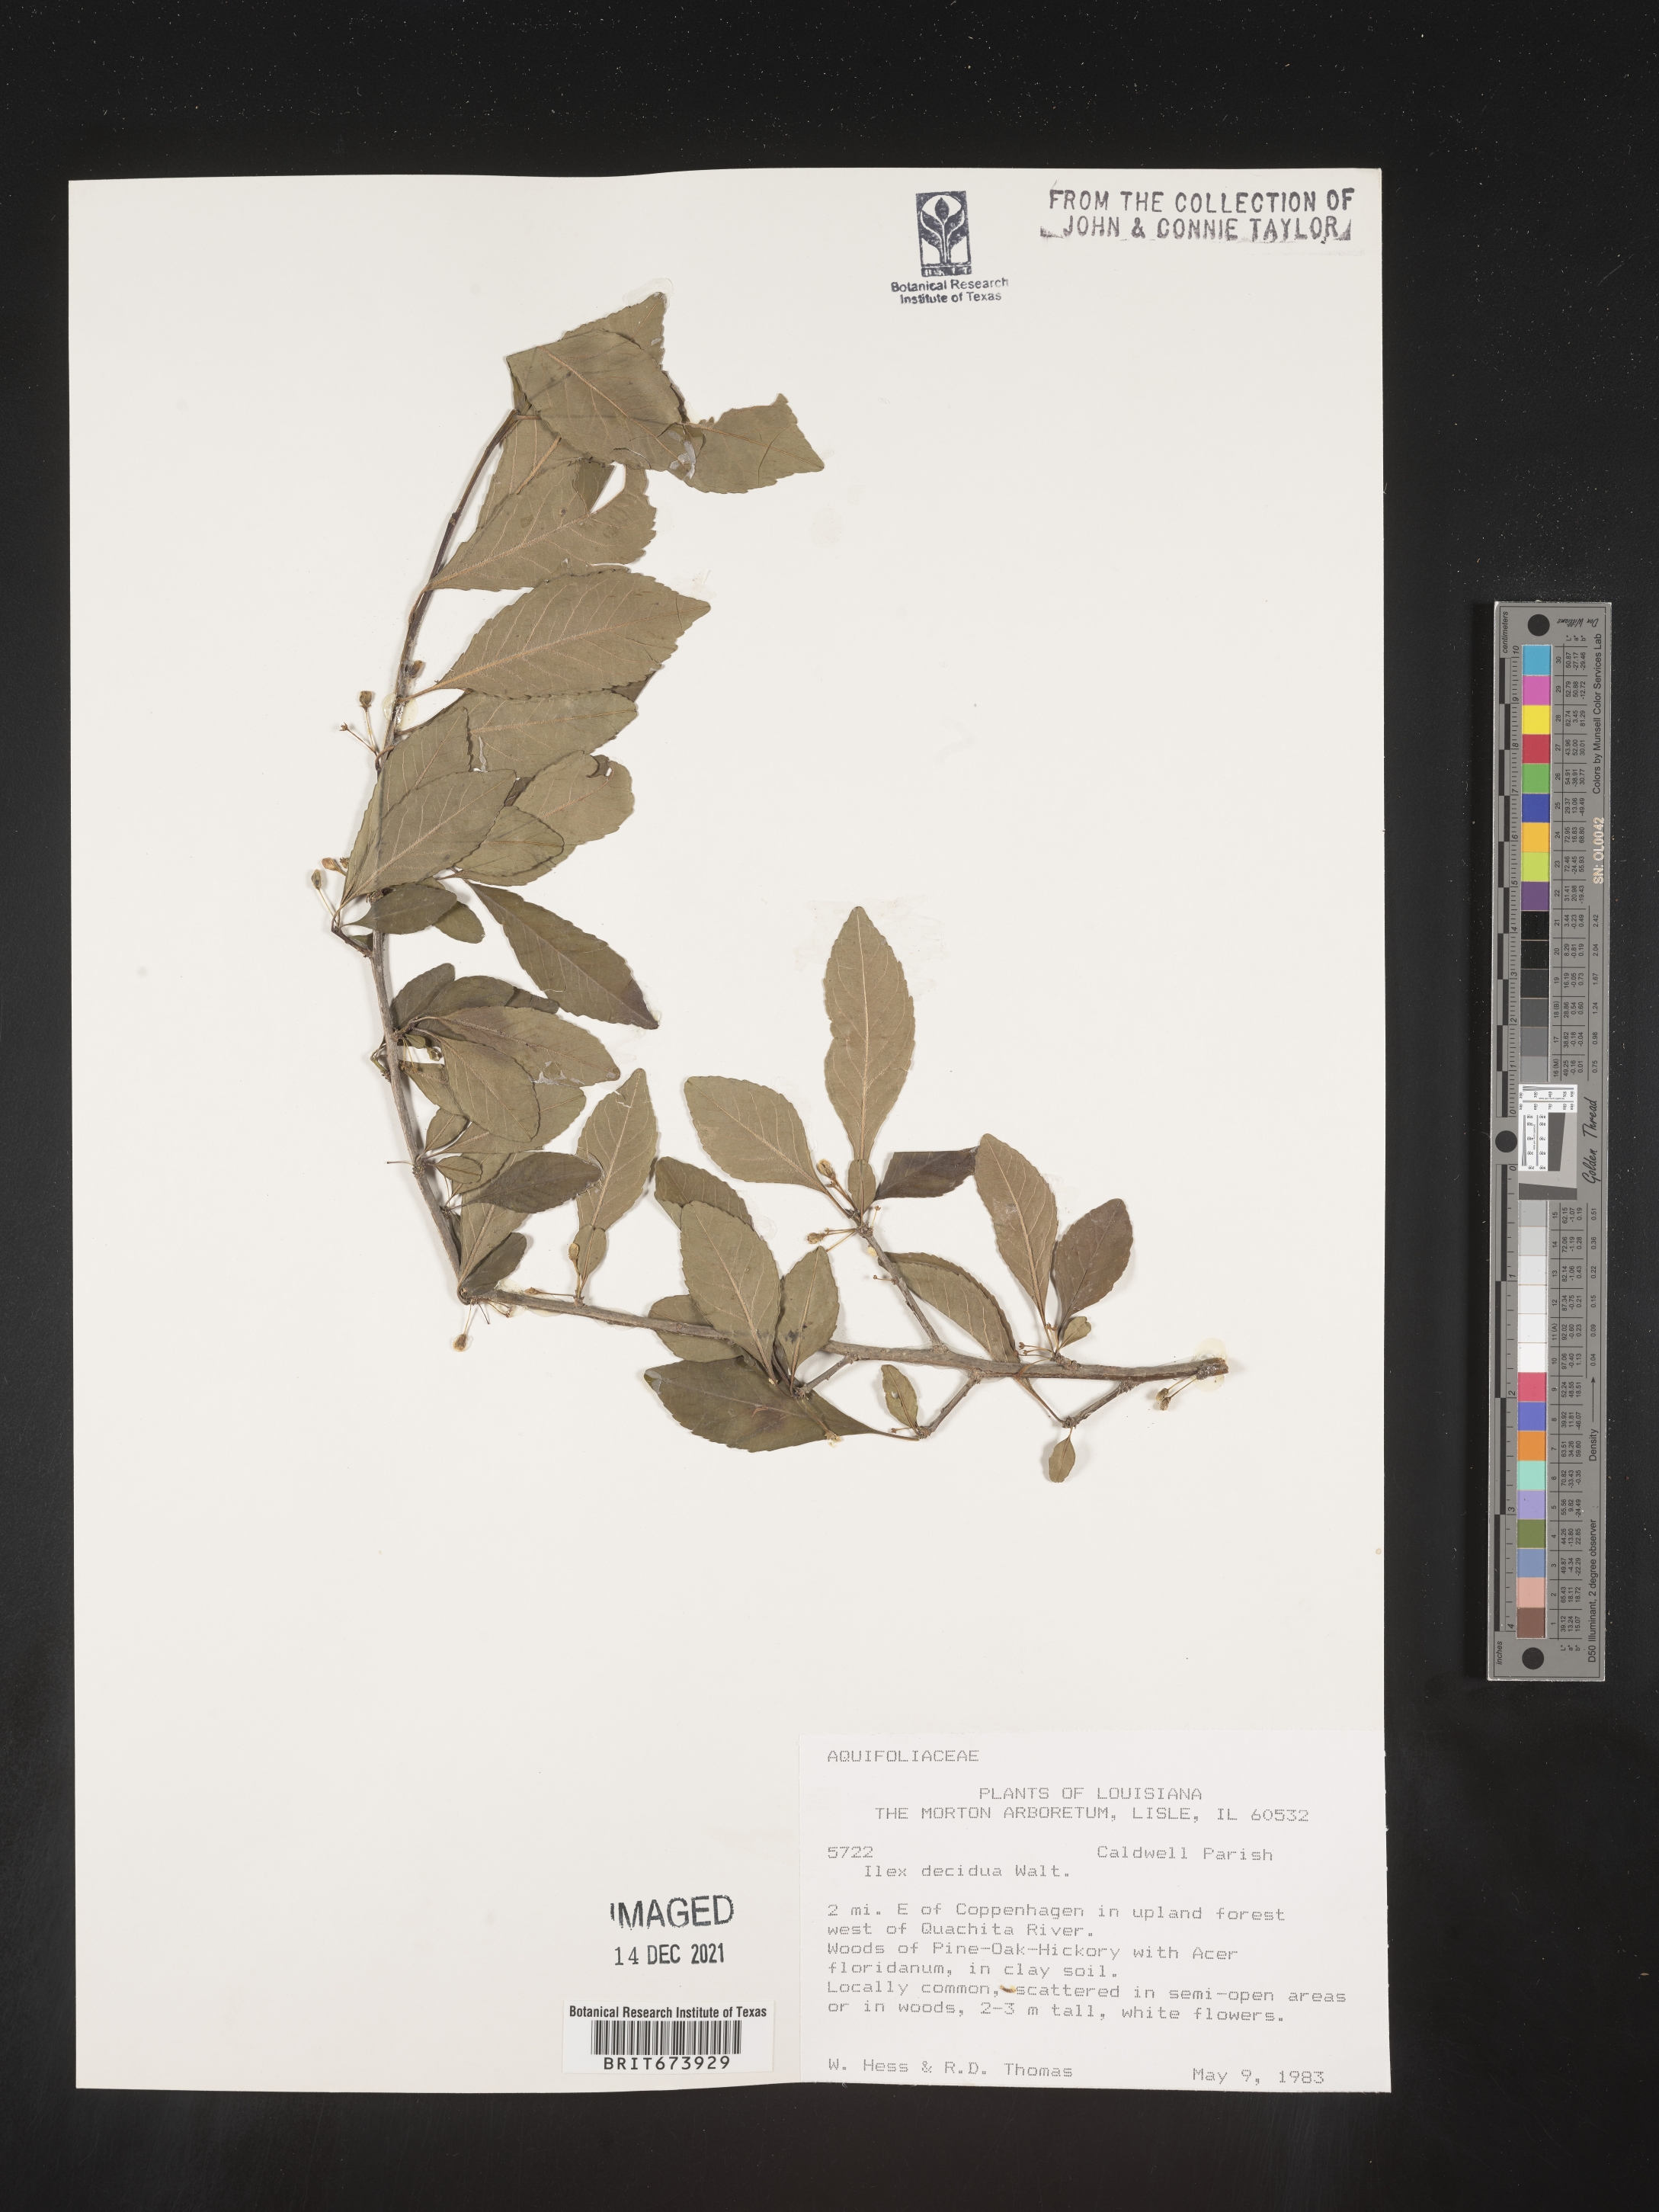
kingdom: Plantae
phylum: Tracheophyta
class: Magnoliopsida
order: Aquifoliales
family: Aquifoliaceae
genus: Ilex
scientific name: Ilex decidua
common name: Possum-haw
